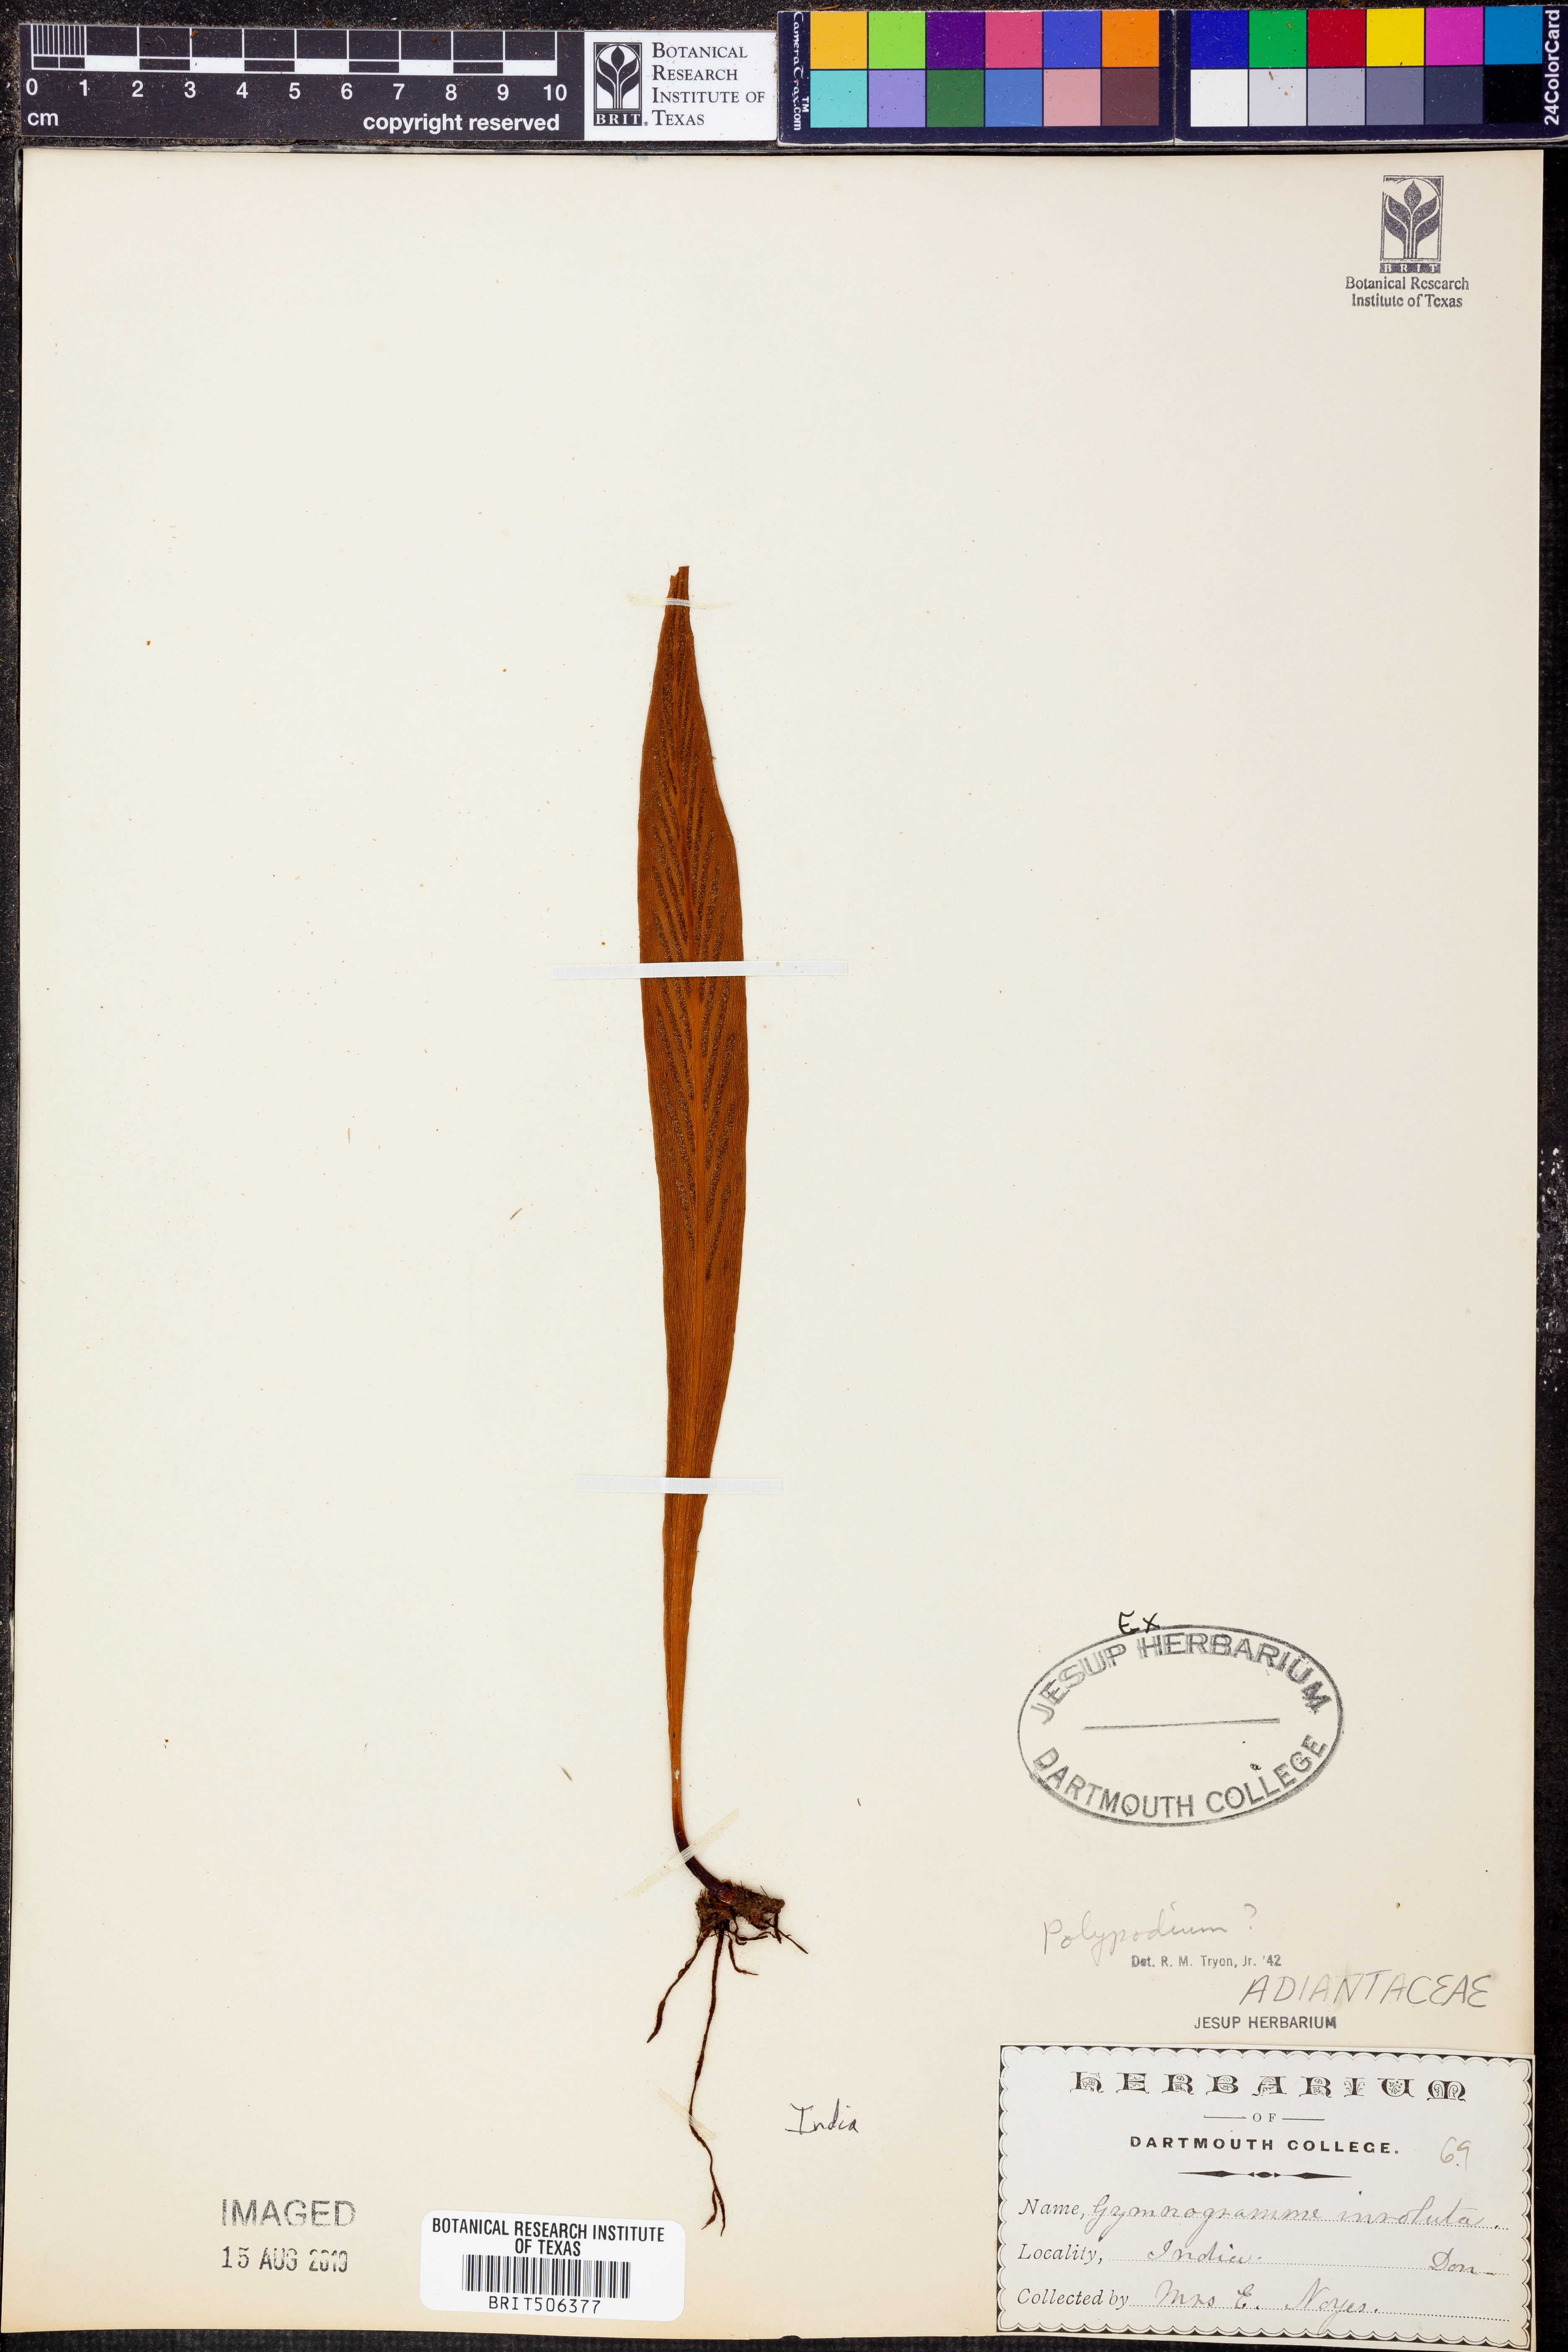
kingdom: Plantae
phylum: Tracheophyta
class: Polypodiopsida
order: Polypodiales
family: Polypodiaceae
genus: Polypodium
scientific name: Polypodium
